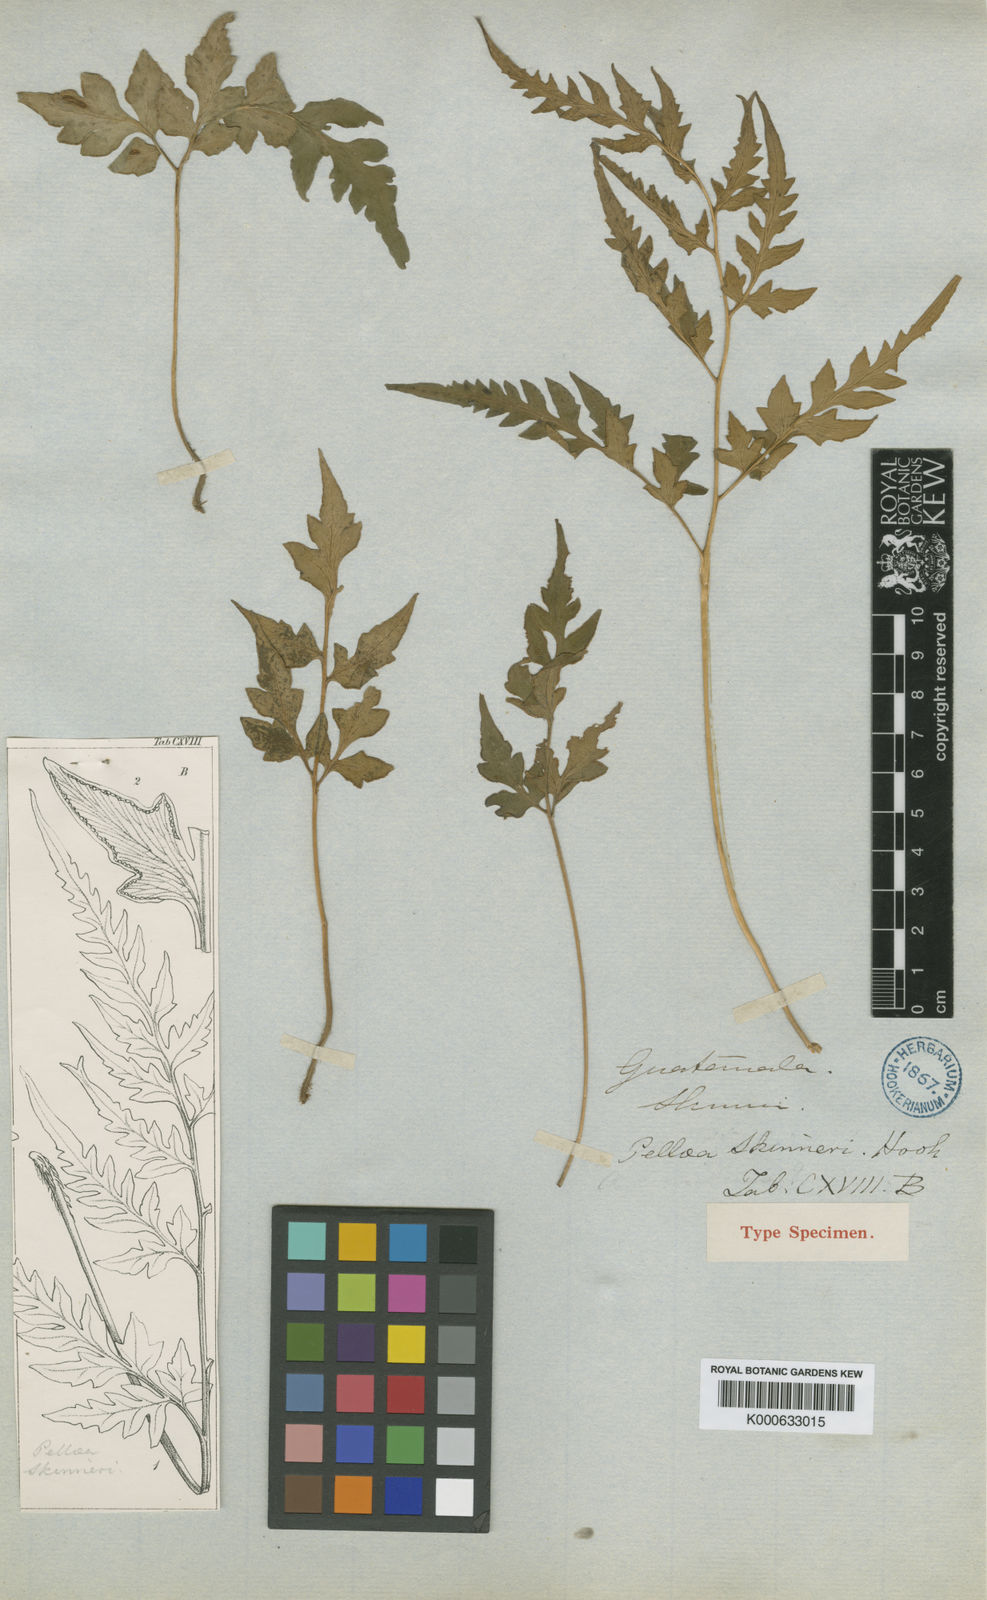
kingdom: Plantae
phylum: Tracheophyta
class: Polypodiopsida
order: Polypodiales
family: Pteridaceae
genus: Cheilanthes
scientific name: Cheilanthes skinneri
